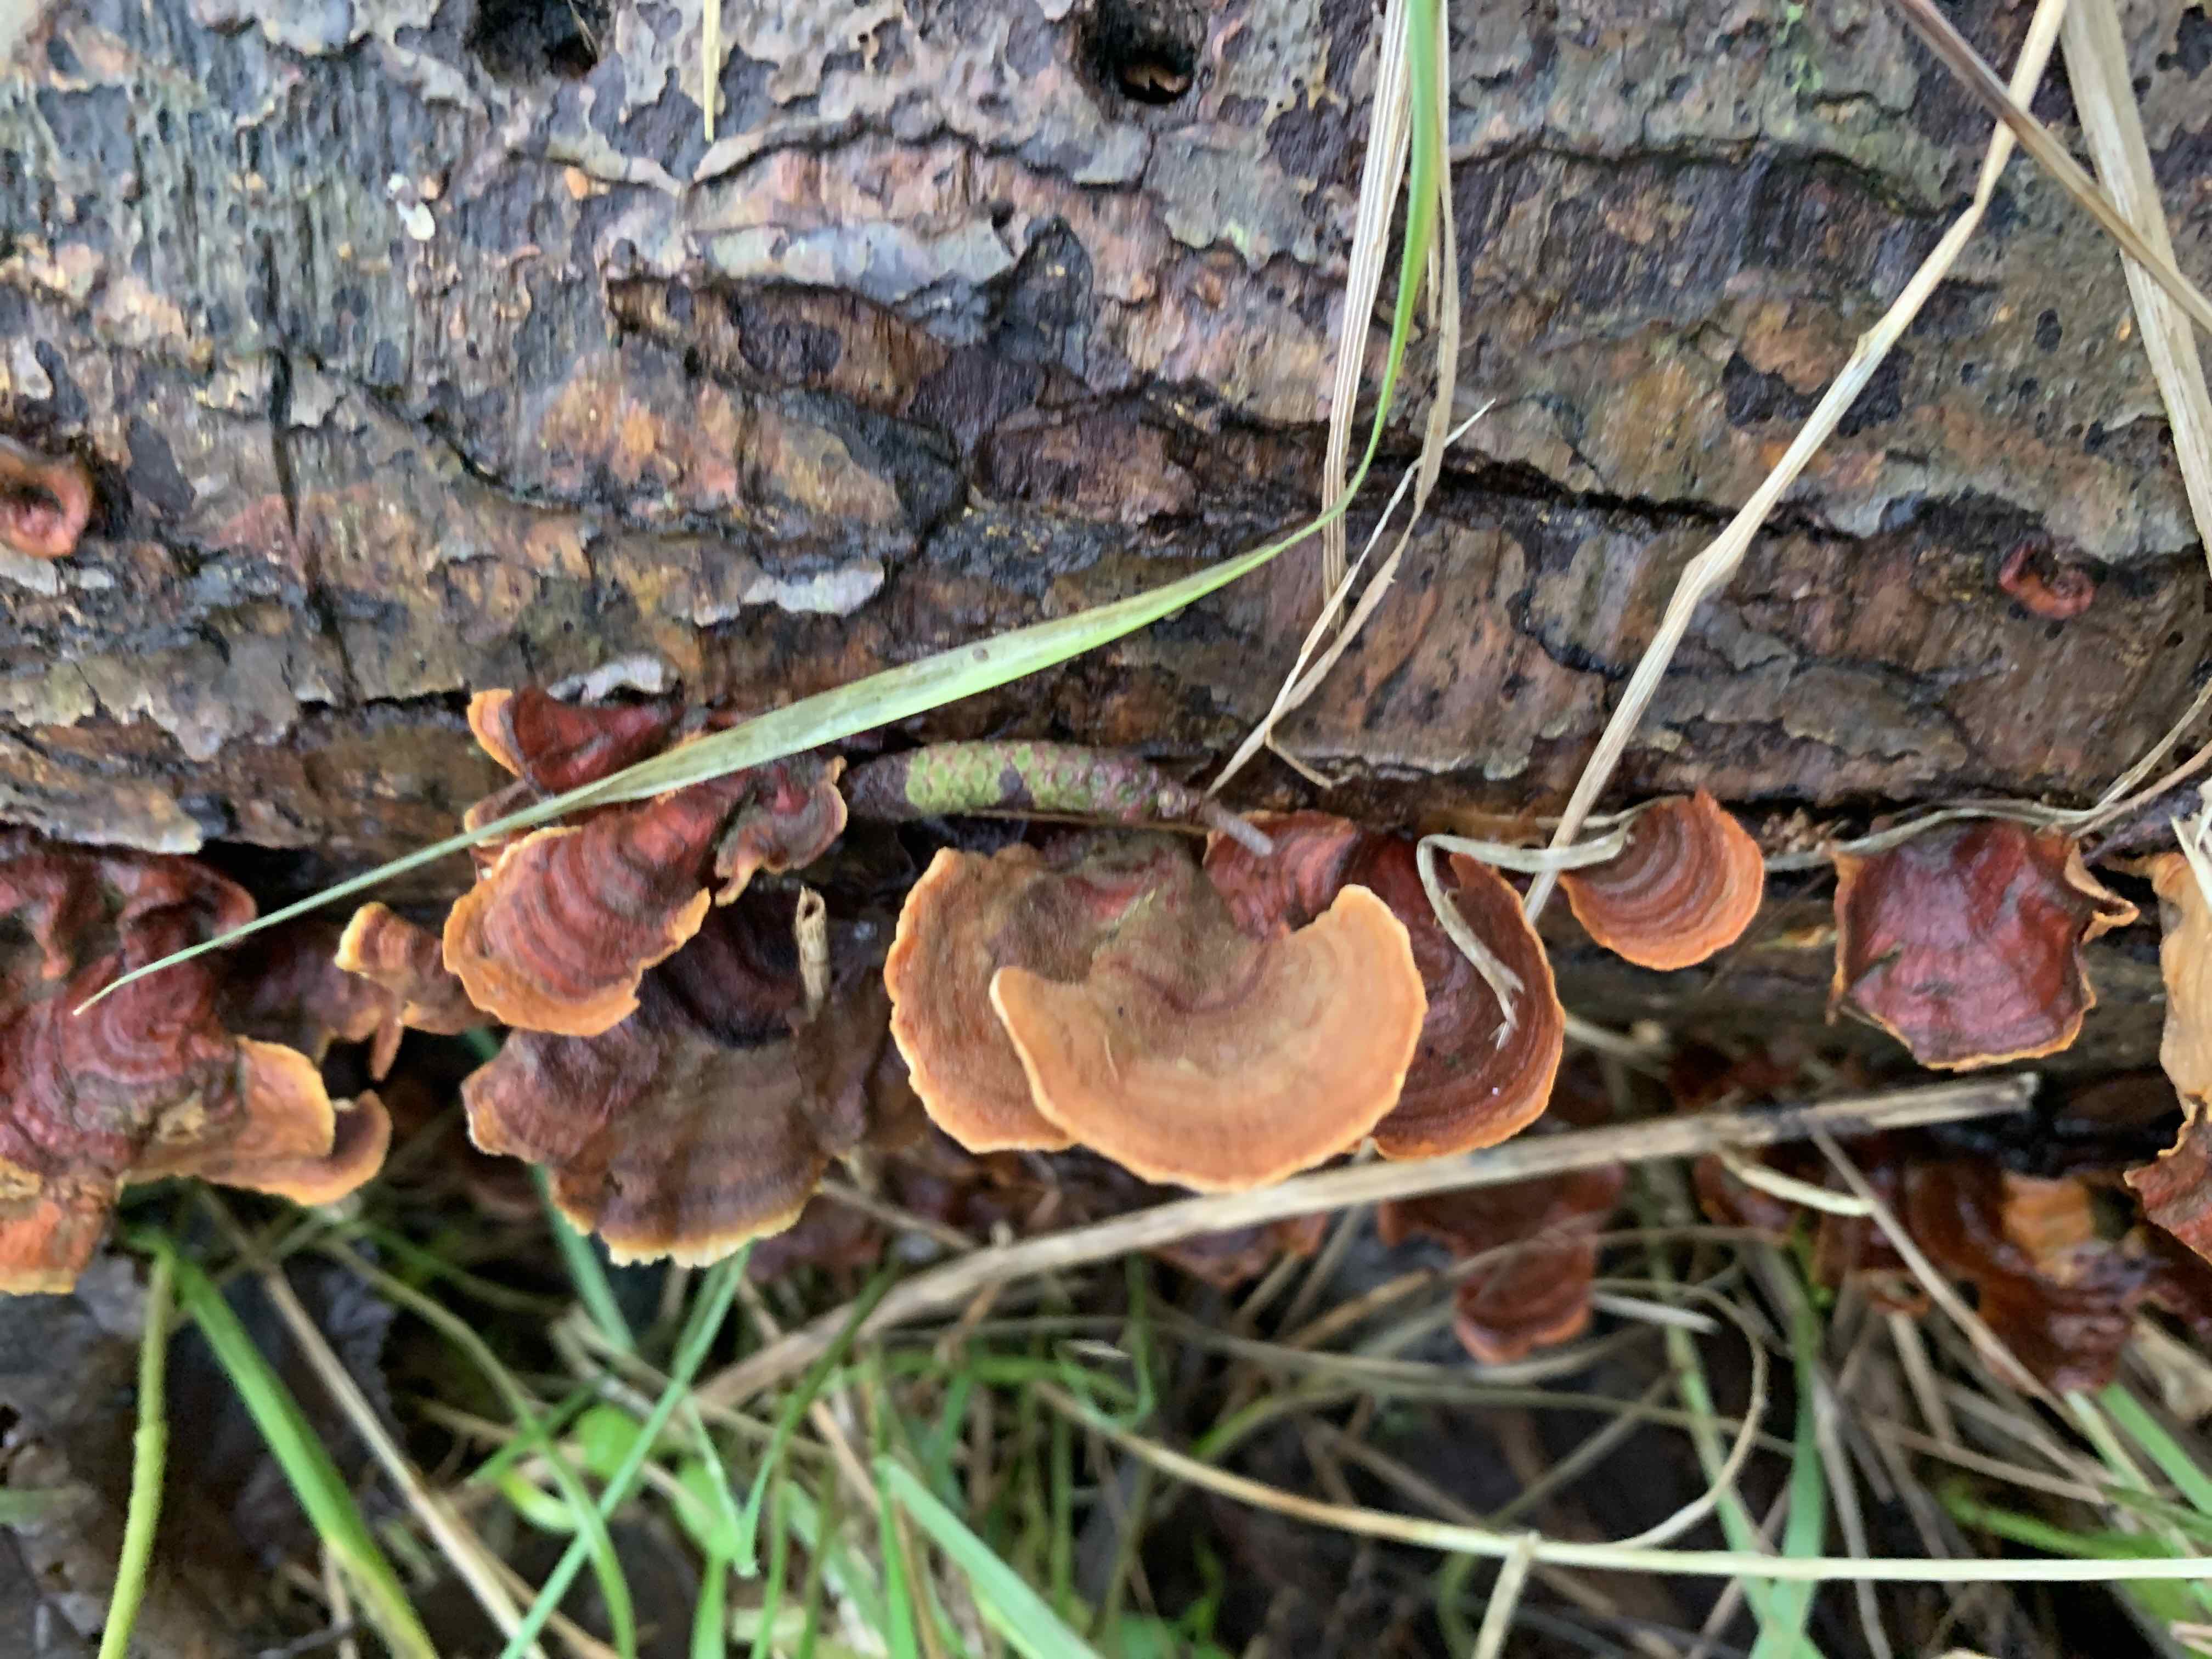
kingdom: Fungi
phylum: Basidiomycota
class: Agaricomycetes
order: Russulales
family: Stereaceae
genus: Stereum
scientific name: Stereum subtomentosum
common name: smuk lædersvamp
